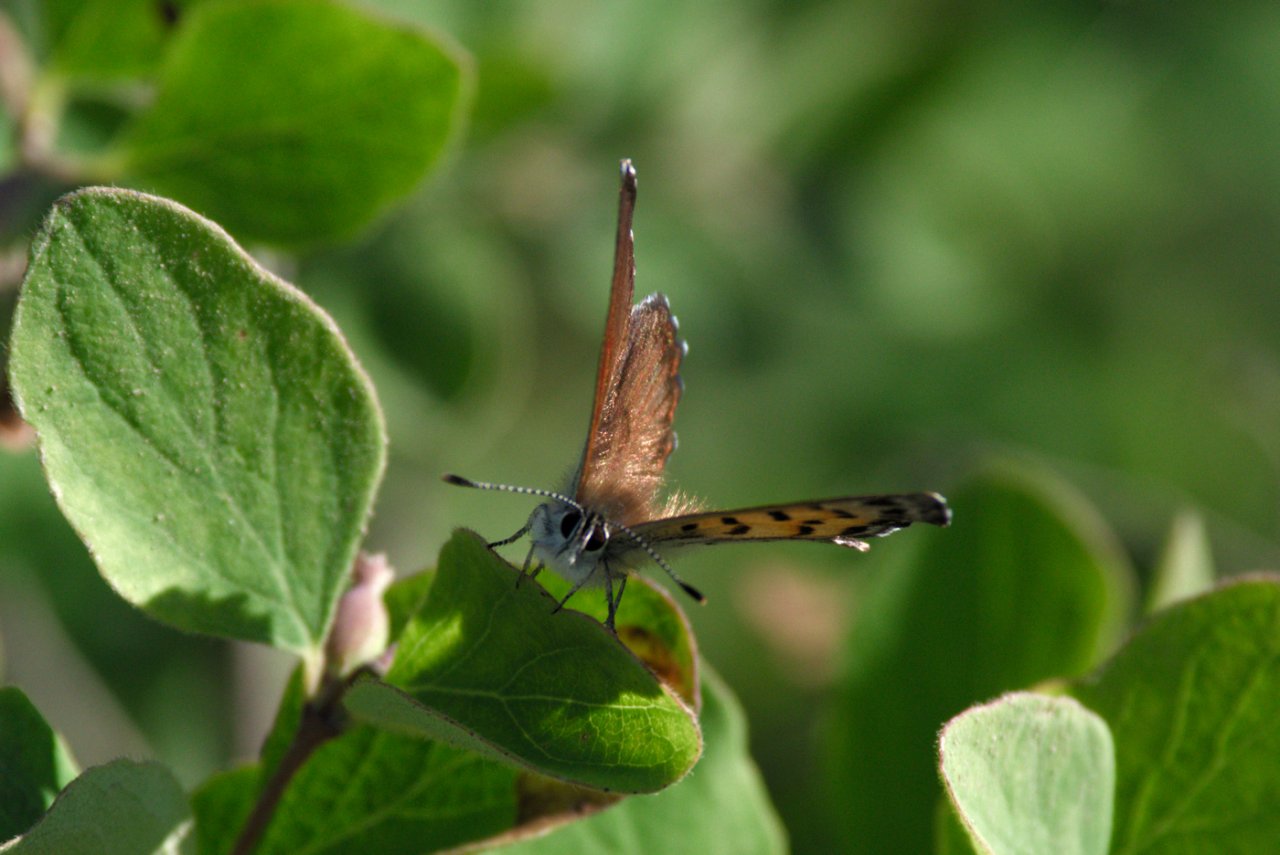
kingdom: Animalia
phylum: Arthropoda
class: Insecta
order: Lepidoptera
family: Lycaenidae
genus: Lycaena
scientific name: Lycaena mariposa
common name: Mariposa Copper
